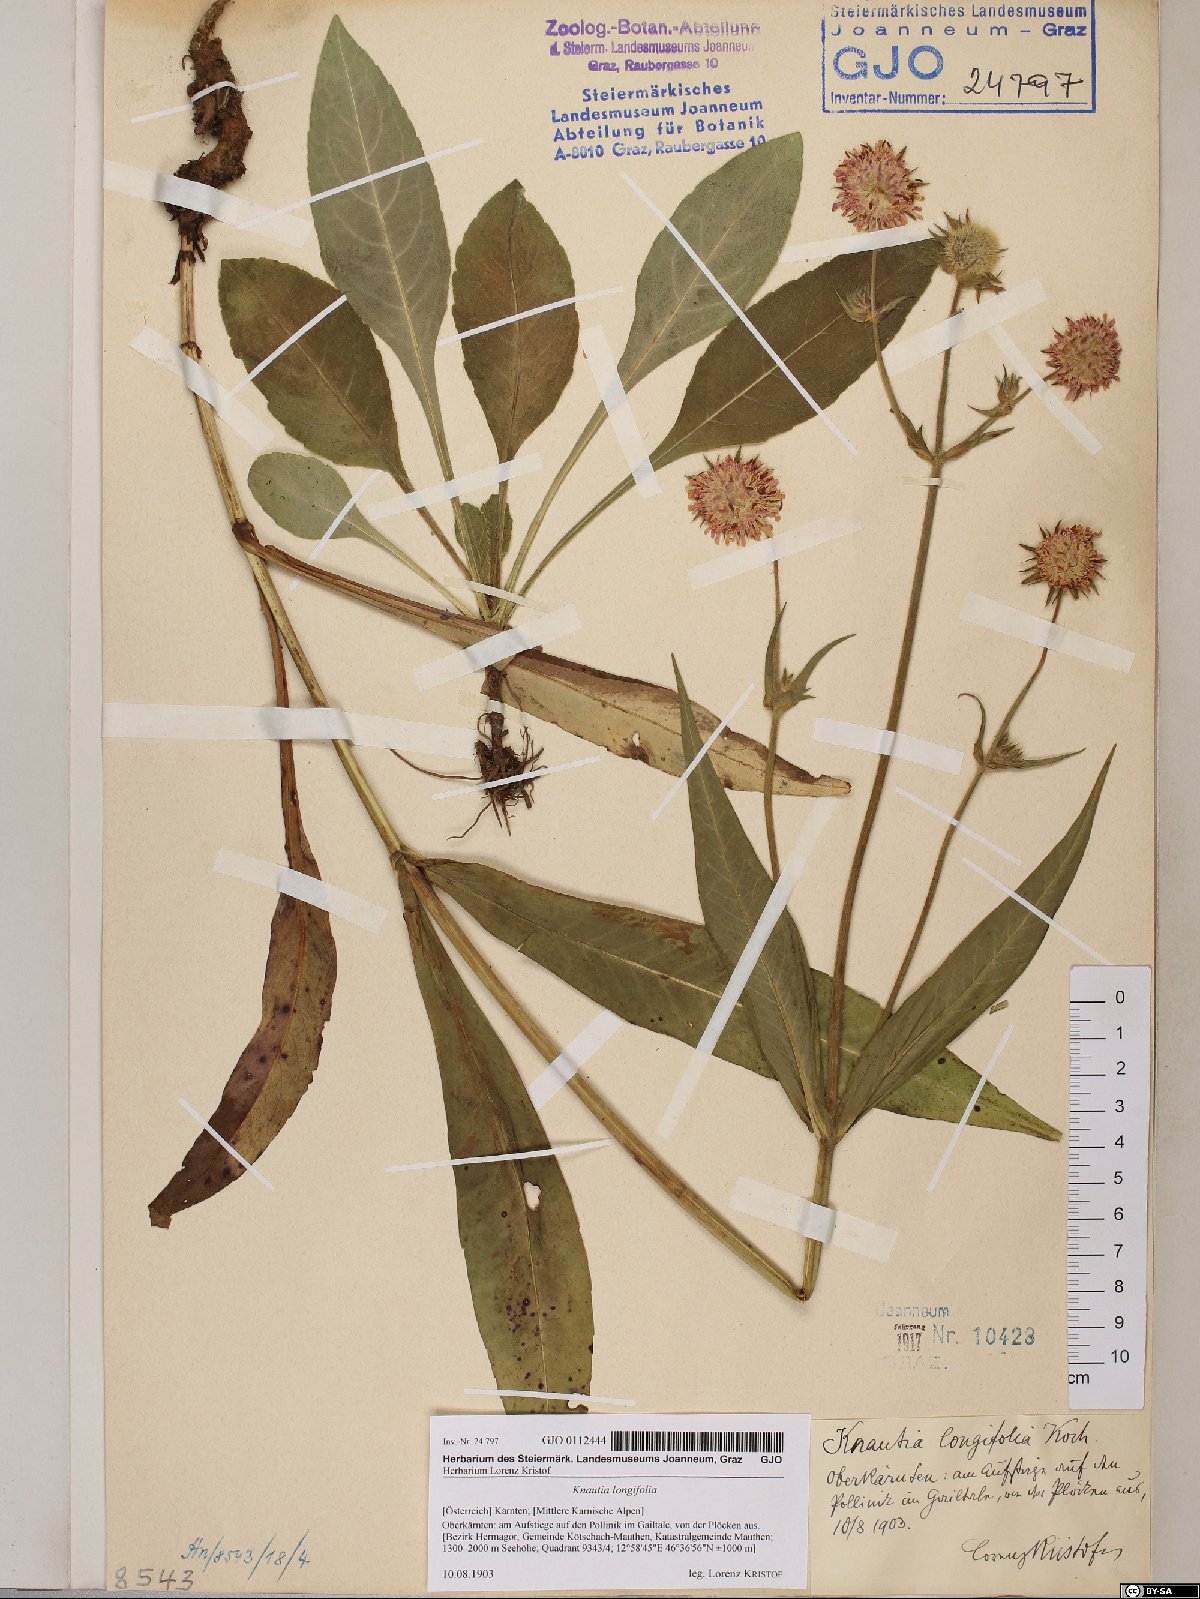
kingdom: Plantae
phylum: Tracheophyta
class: Magnoliopsida
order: Dipsacales
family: Caprifoliaceae
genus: Knautia
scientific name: Knautia longifolia
